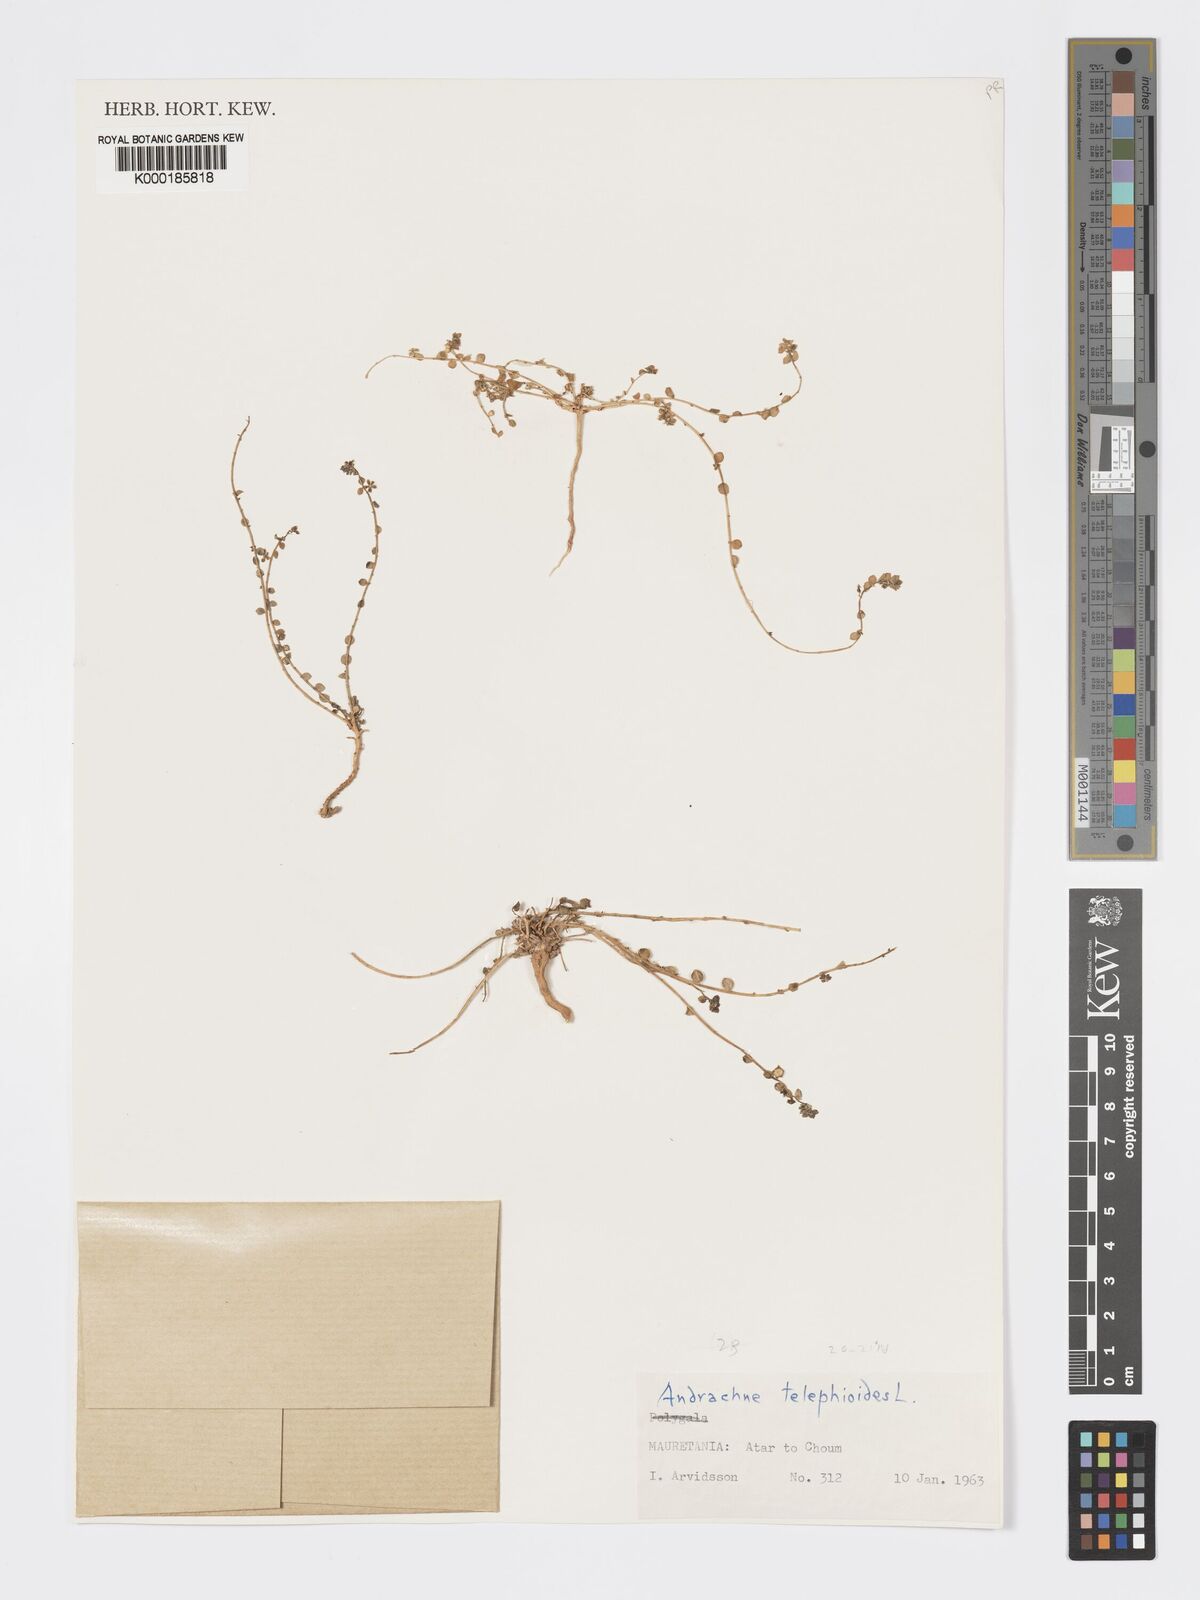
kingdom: Plantae
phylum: Tracheophyta
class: Magnoliopsida
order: Malpighiales
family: Phyllanthaceae
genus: Andrachne
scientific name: Andrachne telephioides
